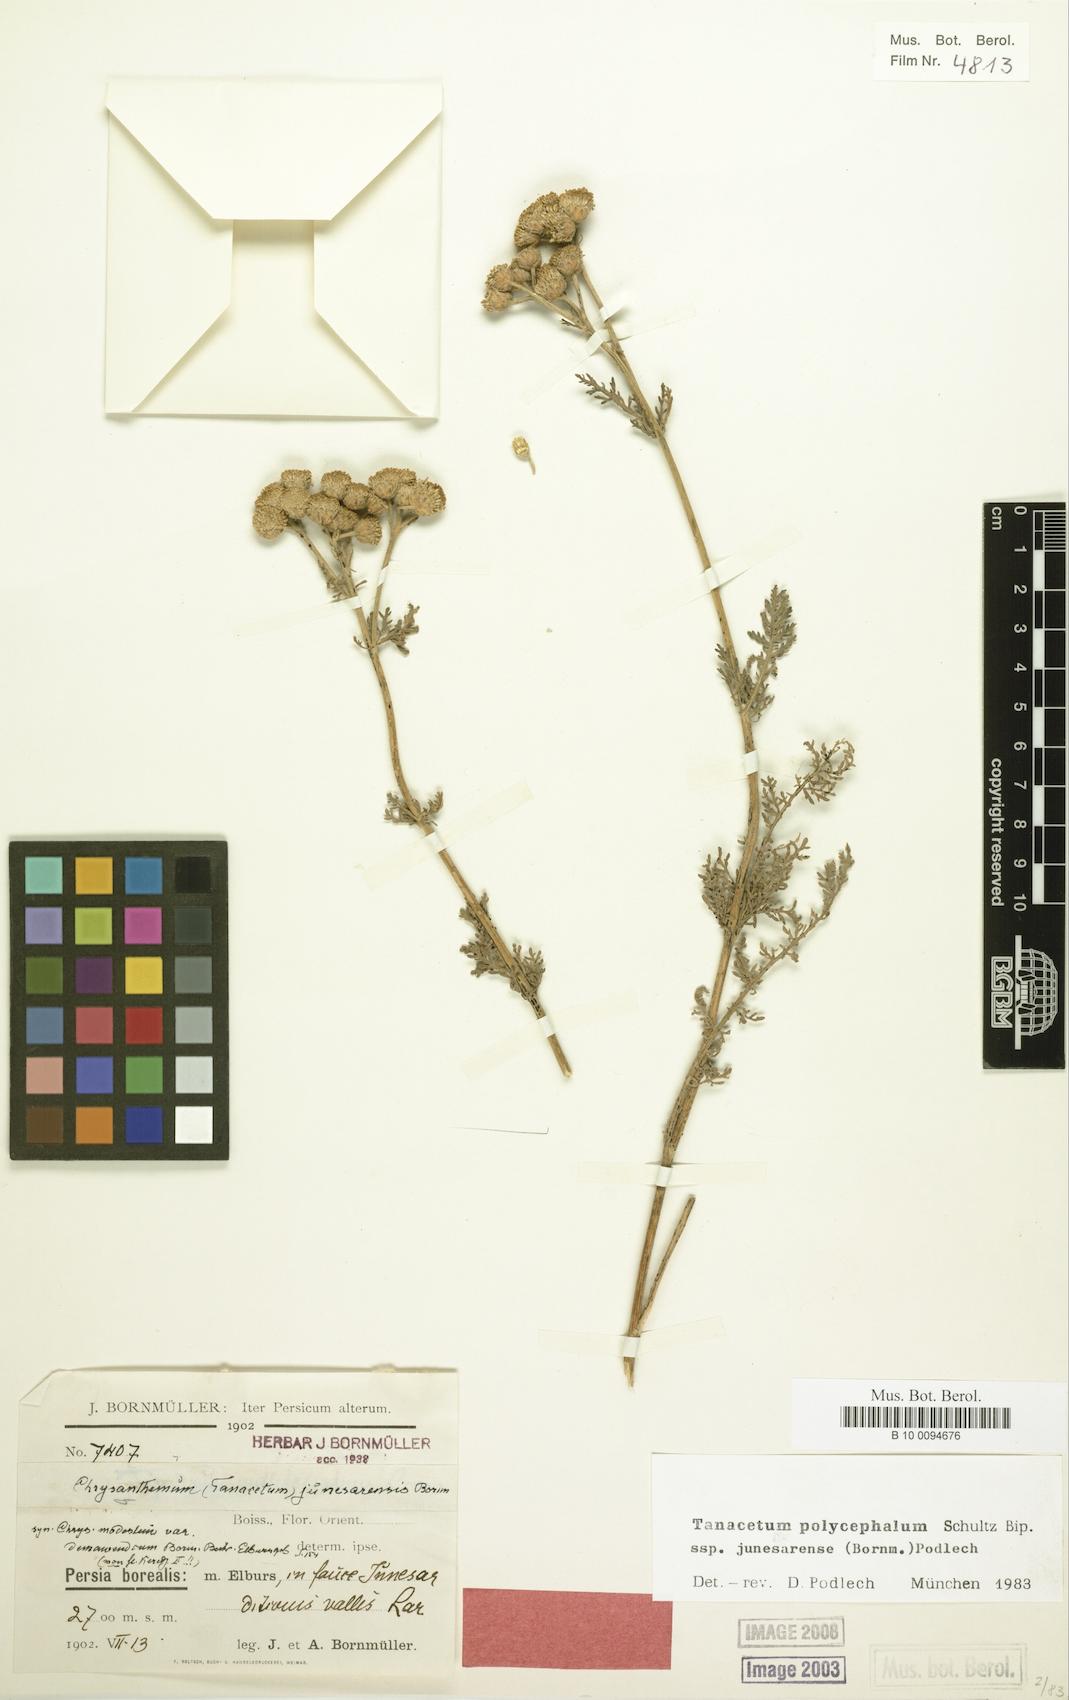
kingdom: Plantae
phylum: Tracheophyta
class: Magnoliopsida
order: Asterales
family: Asteraceae
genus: Tanacetum
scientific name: Tanacetum polycephalum
